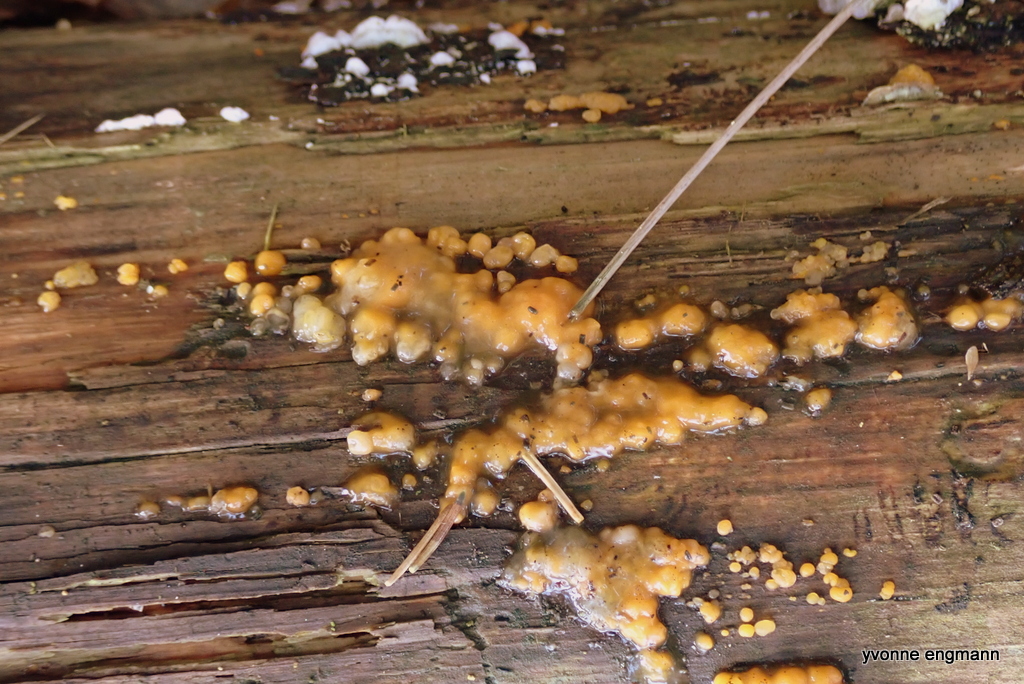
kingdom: Fungi
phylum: Basidiomycota
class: Dacrymycetes
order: Dacrymycetales
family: Dacrymycetaceae
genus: Dacrymyces
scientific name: Dacrymyces stillatus
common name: almindelig tåresvamp
